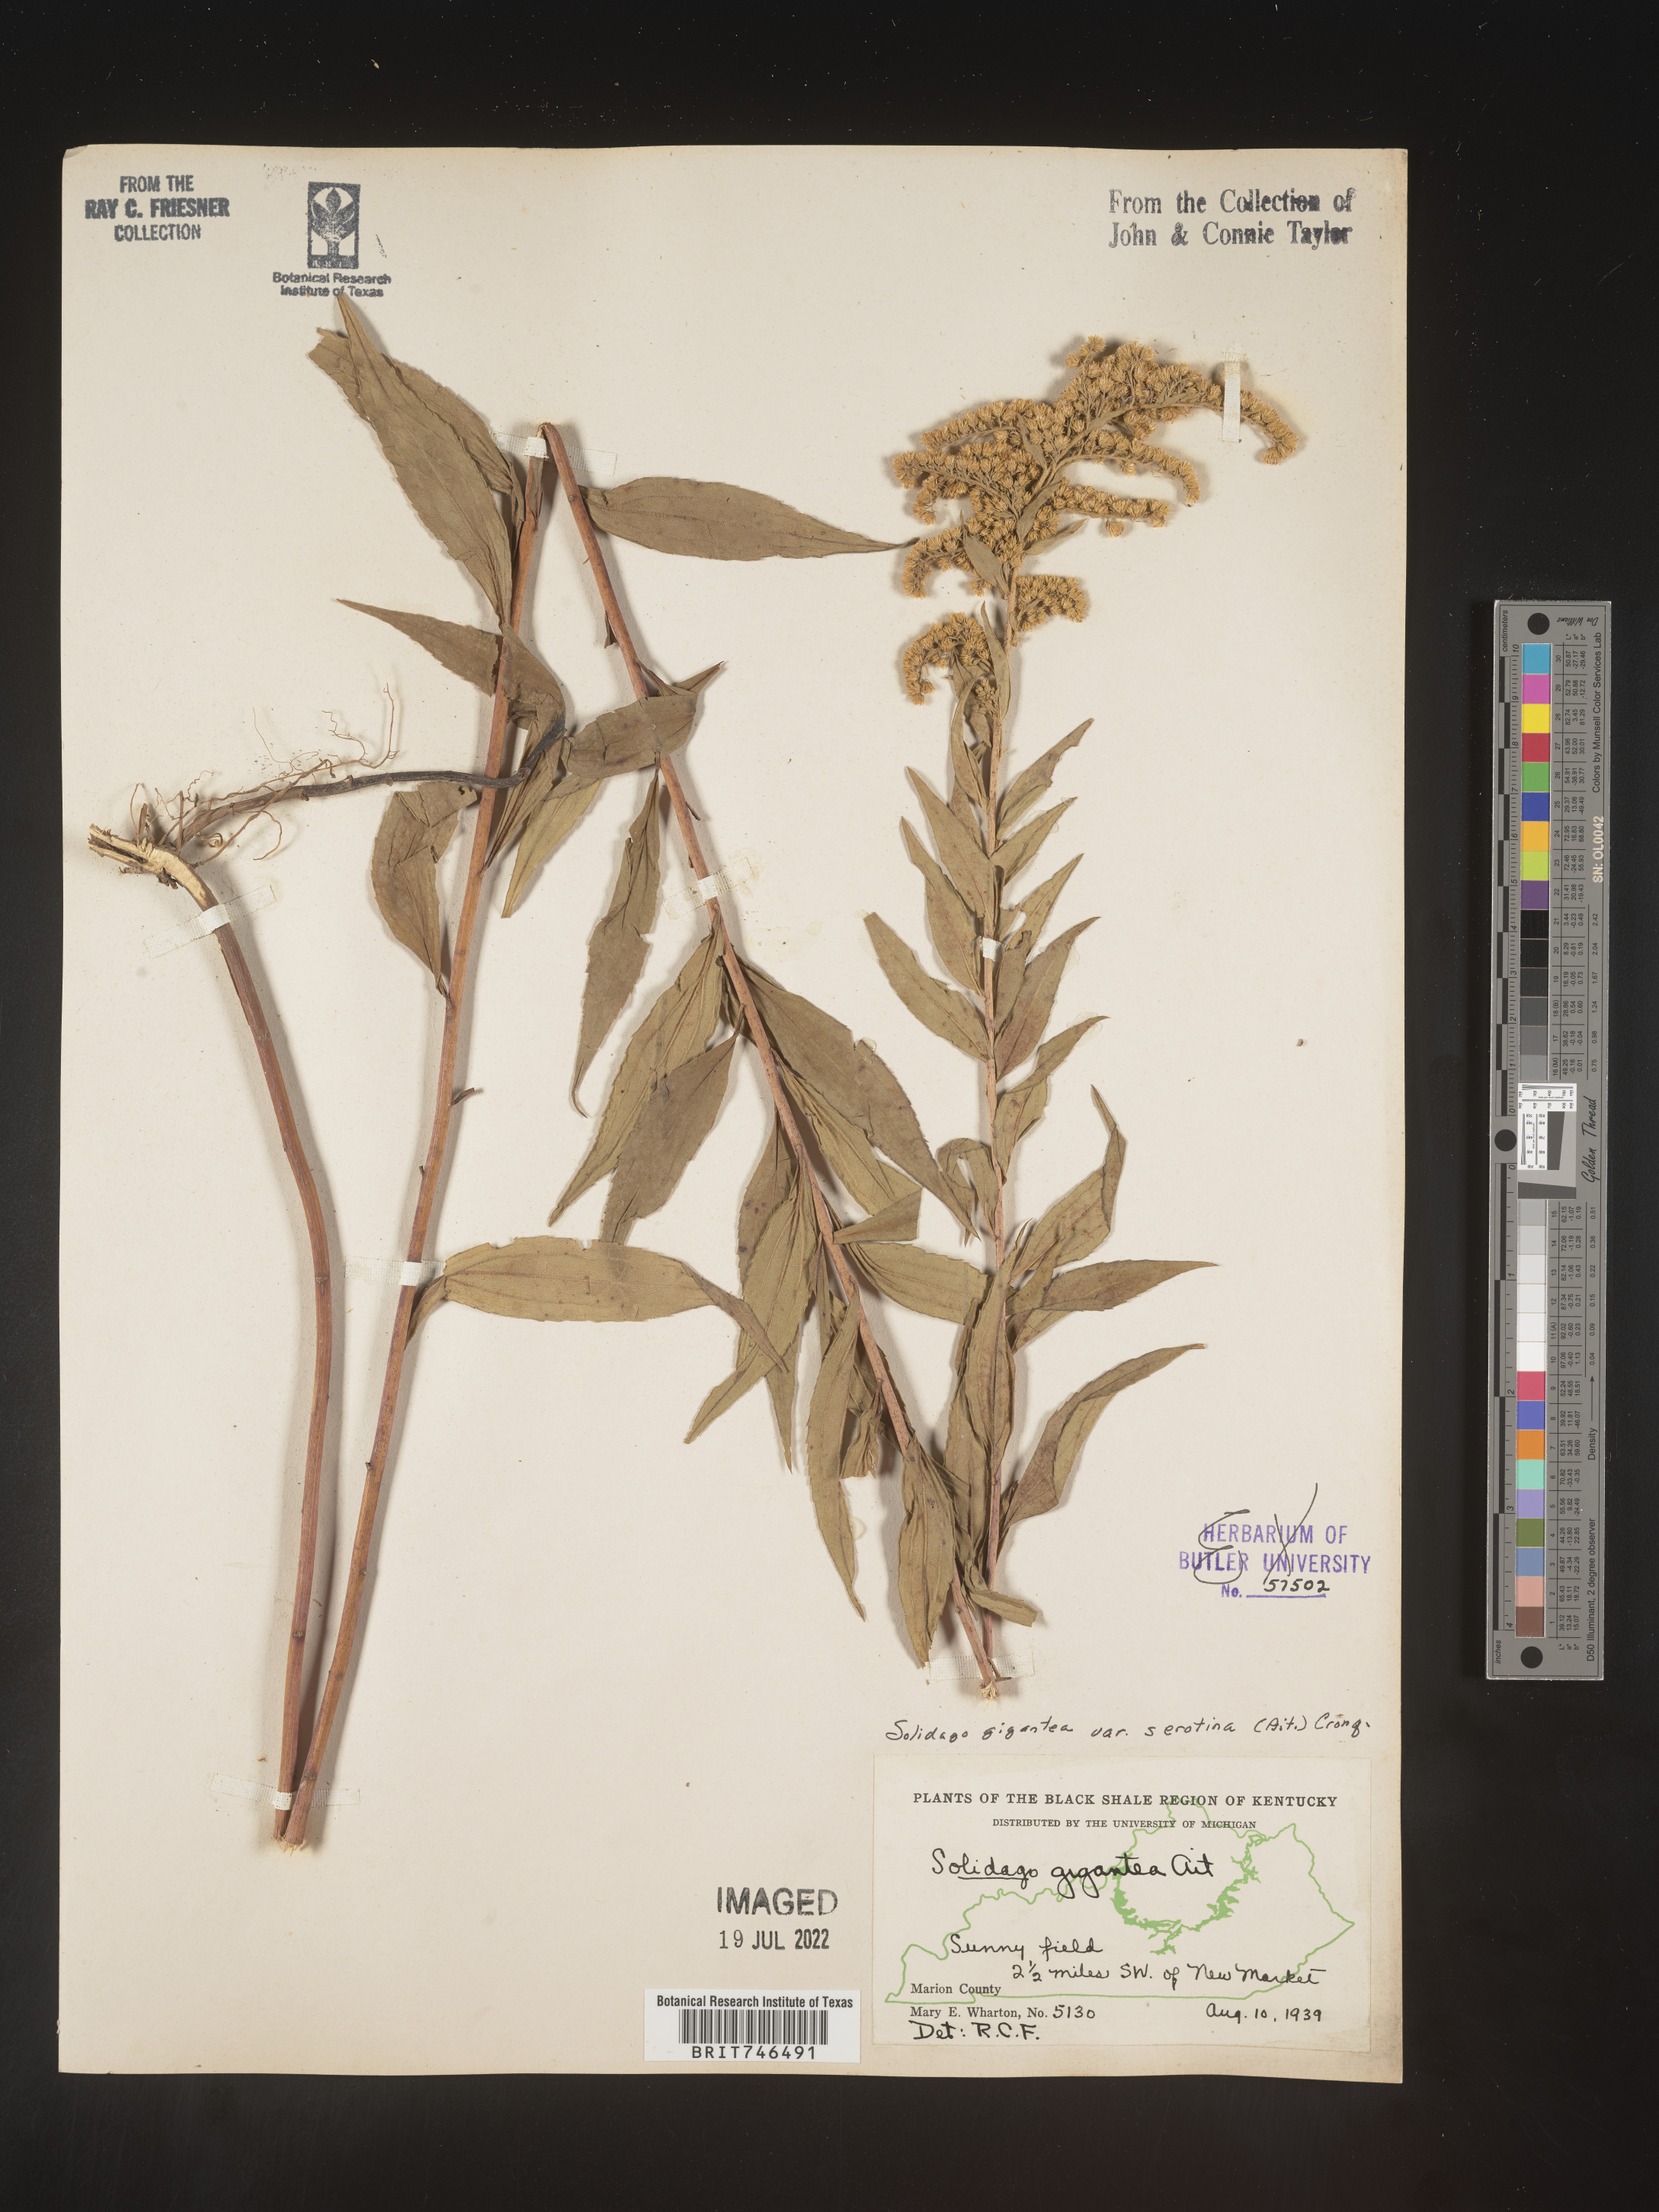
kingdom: Plantae
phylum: Tracheophyta
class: Magnoliopsida
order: Asterales
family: Asteraceae
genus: Solidago
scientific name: Solidago gigantea
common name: Giant goldenrod
